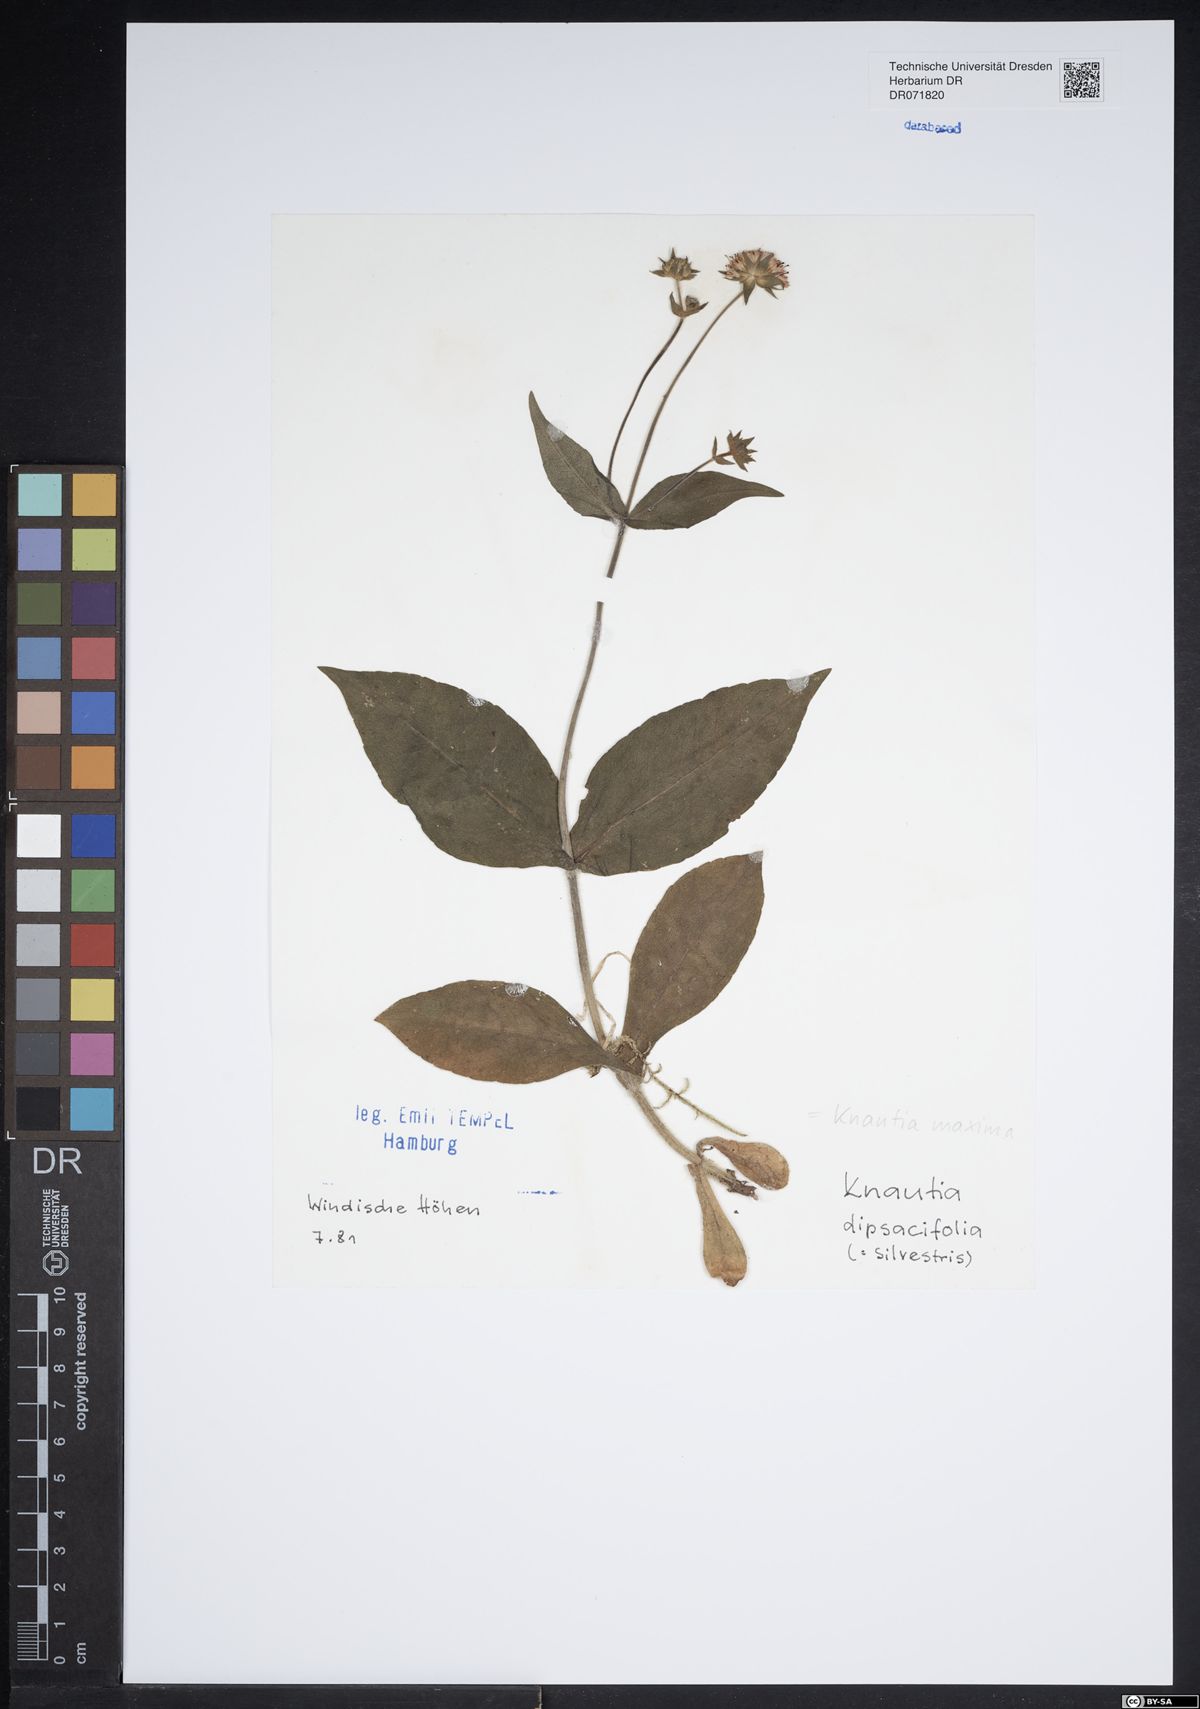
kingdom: Plantae
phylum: Tracheophyta
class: Magnoliopsida
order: Dipsacales
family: Caprifoliaceae
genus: Knautia
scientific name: Knautia dipsacifolia
